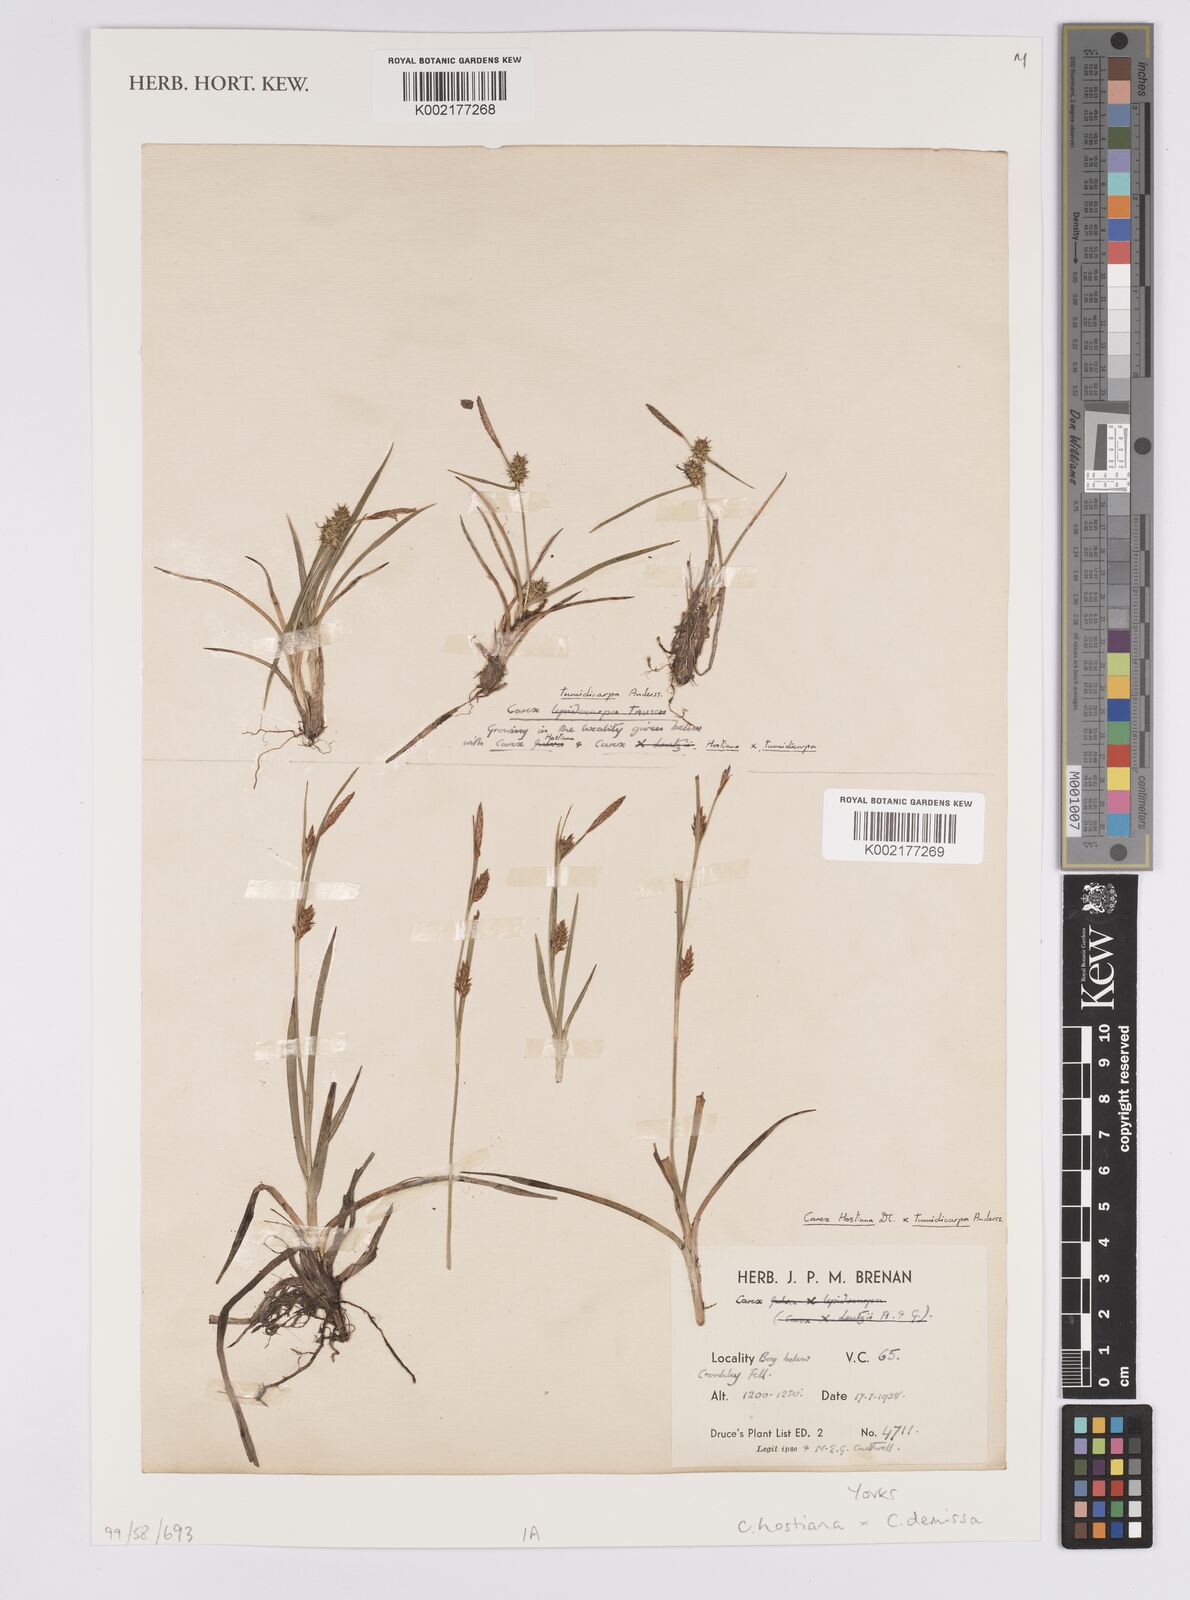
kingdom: Plantae
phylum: Tracheophyta
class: Liliopsida
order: Poales
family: Cyperaceae
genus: Carex
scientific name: Carex hostiana
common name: Tawny sedge
